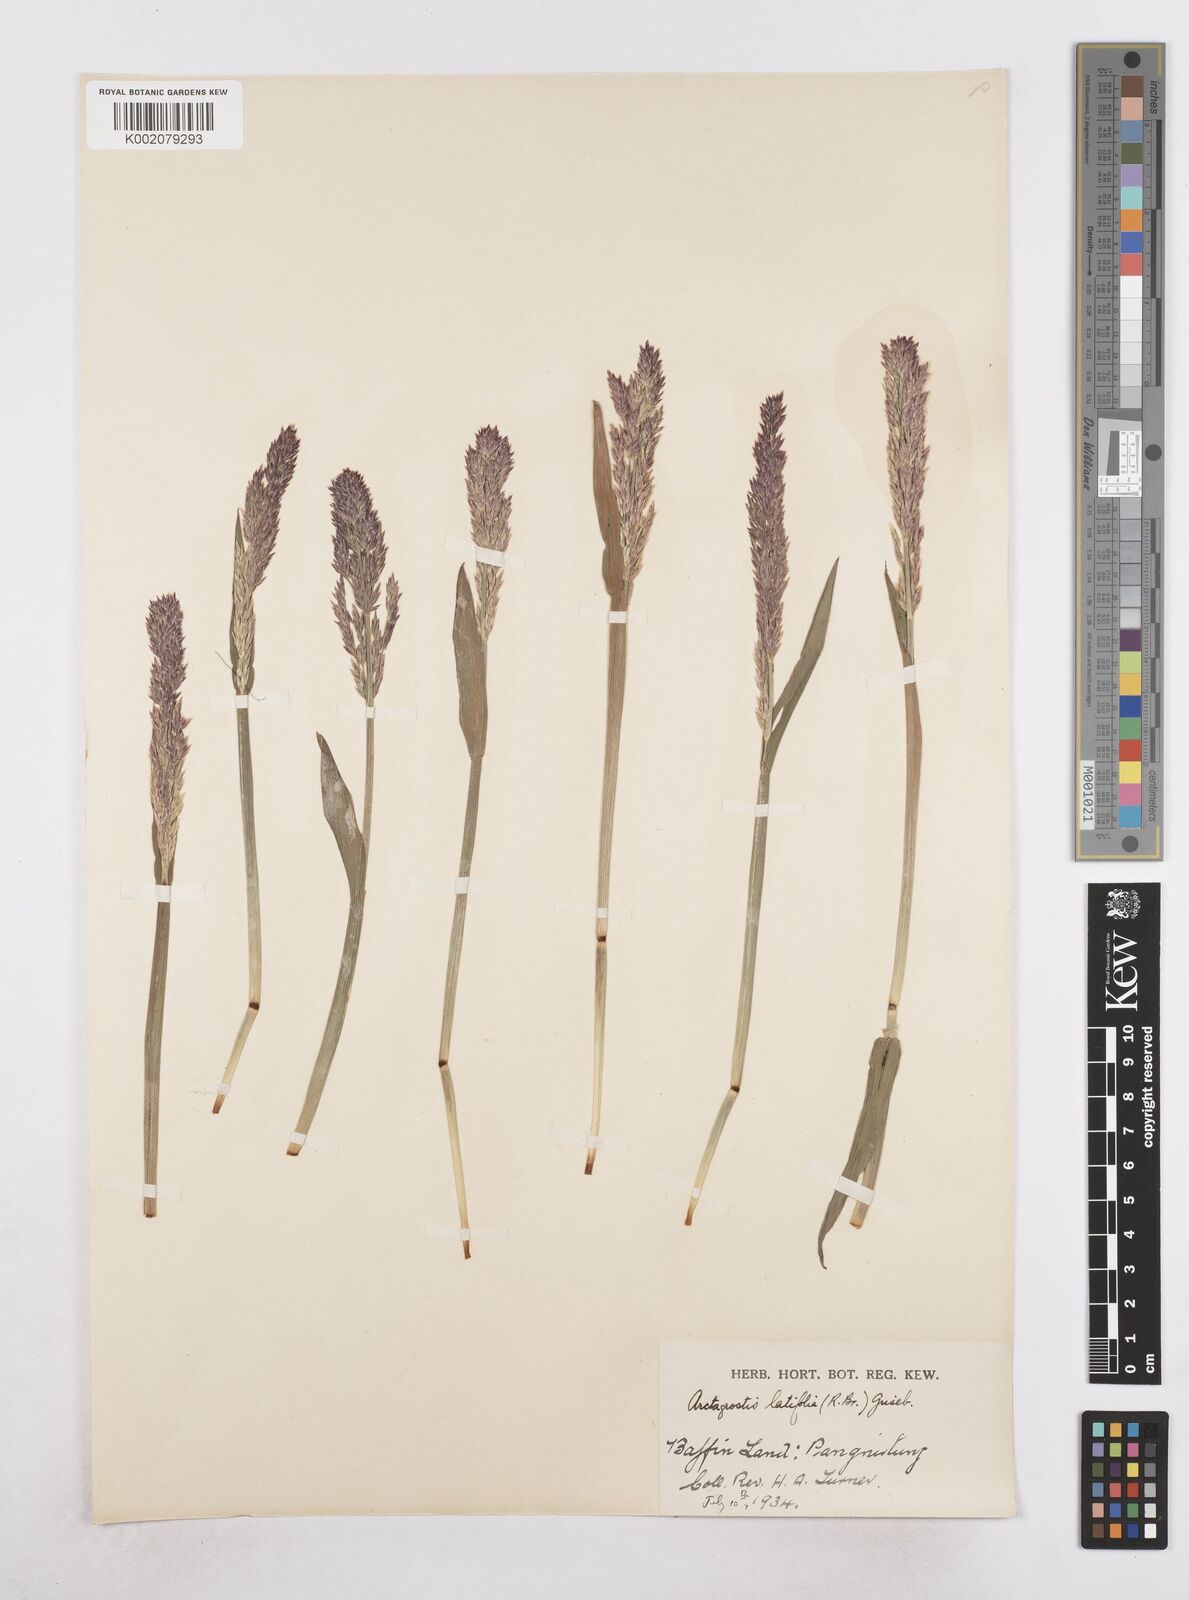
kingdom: Plantae
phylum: Tracheophyta
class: Liliopsida
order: Poales
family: Poaceae
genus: Arctagrostis
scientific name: Arctagrostis latifolia
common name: Arctic grass
